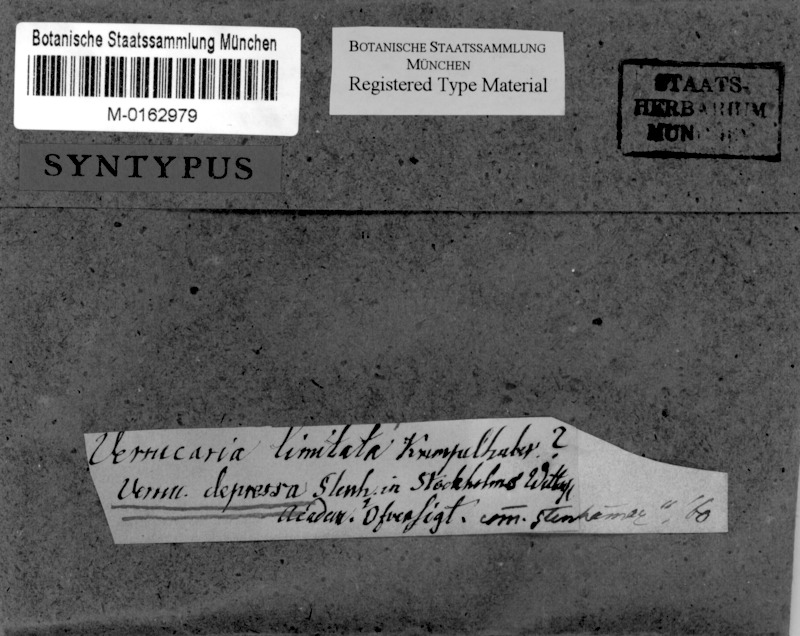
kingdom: Fungi
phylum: Ascomycota
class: Eurotiomycetes
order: Verrucariales
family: Verrucariaceae
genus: Verrucaria
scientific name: Verrucaria obscura
